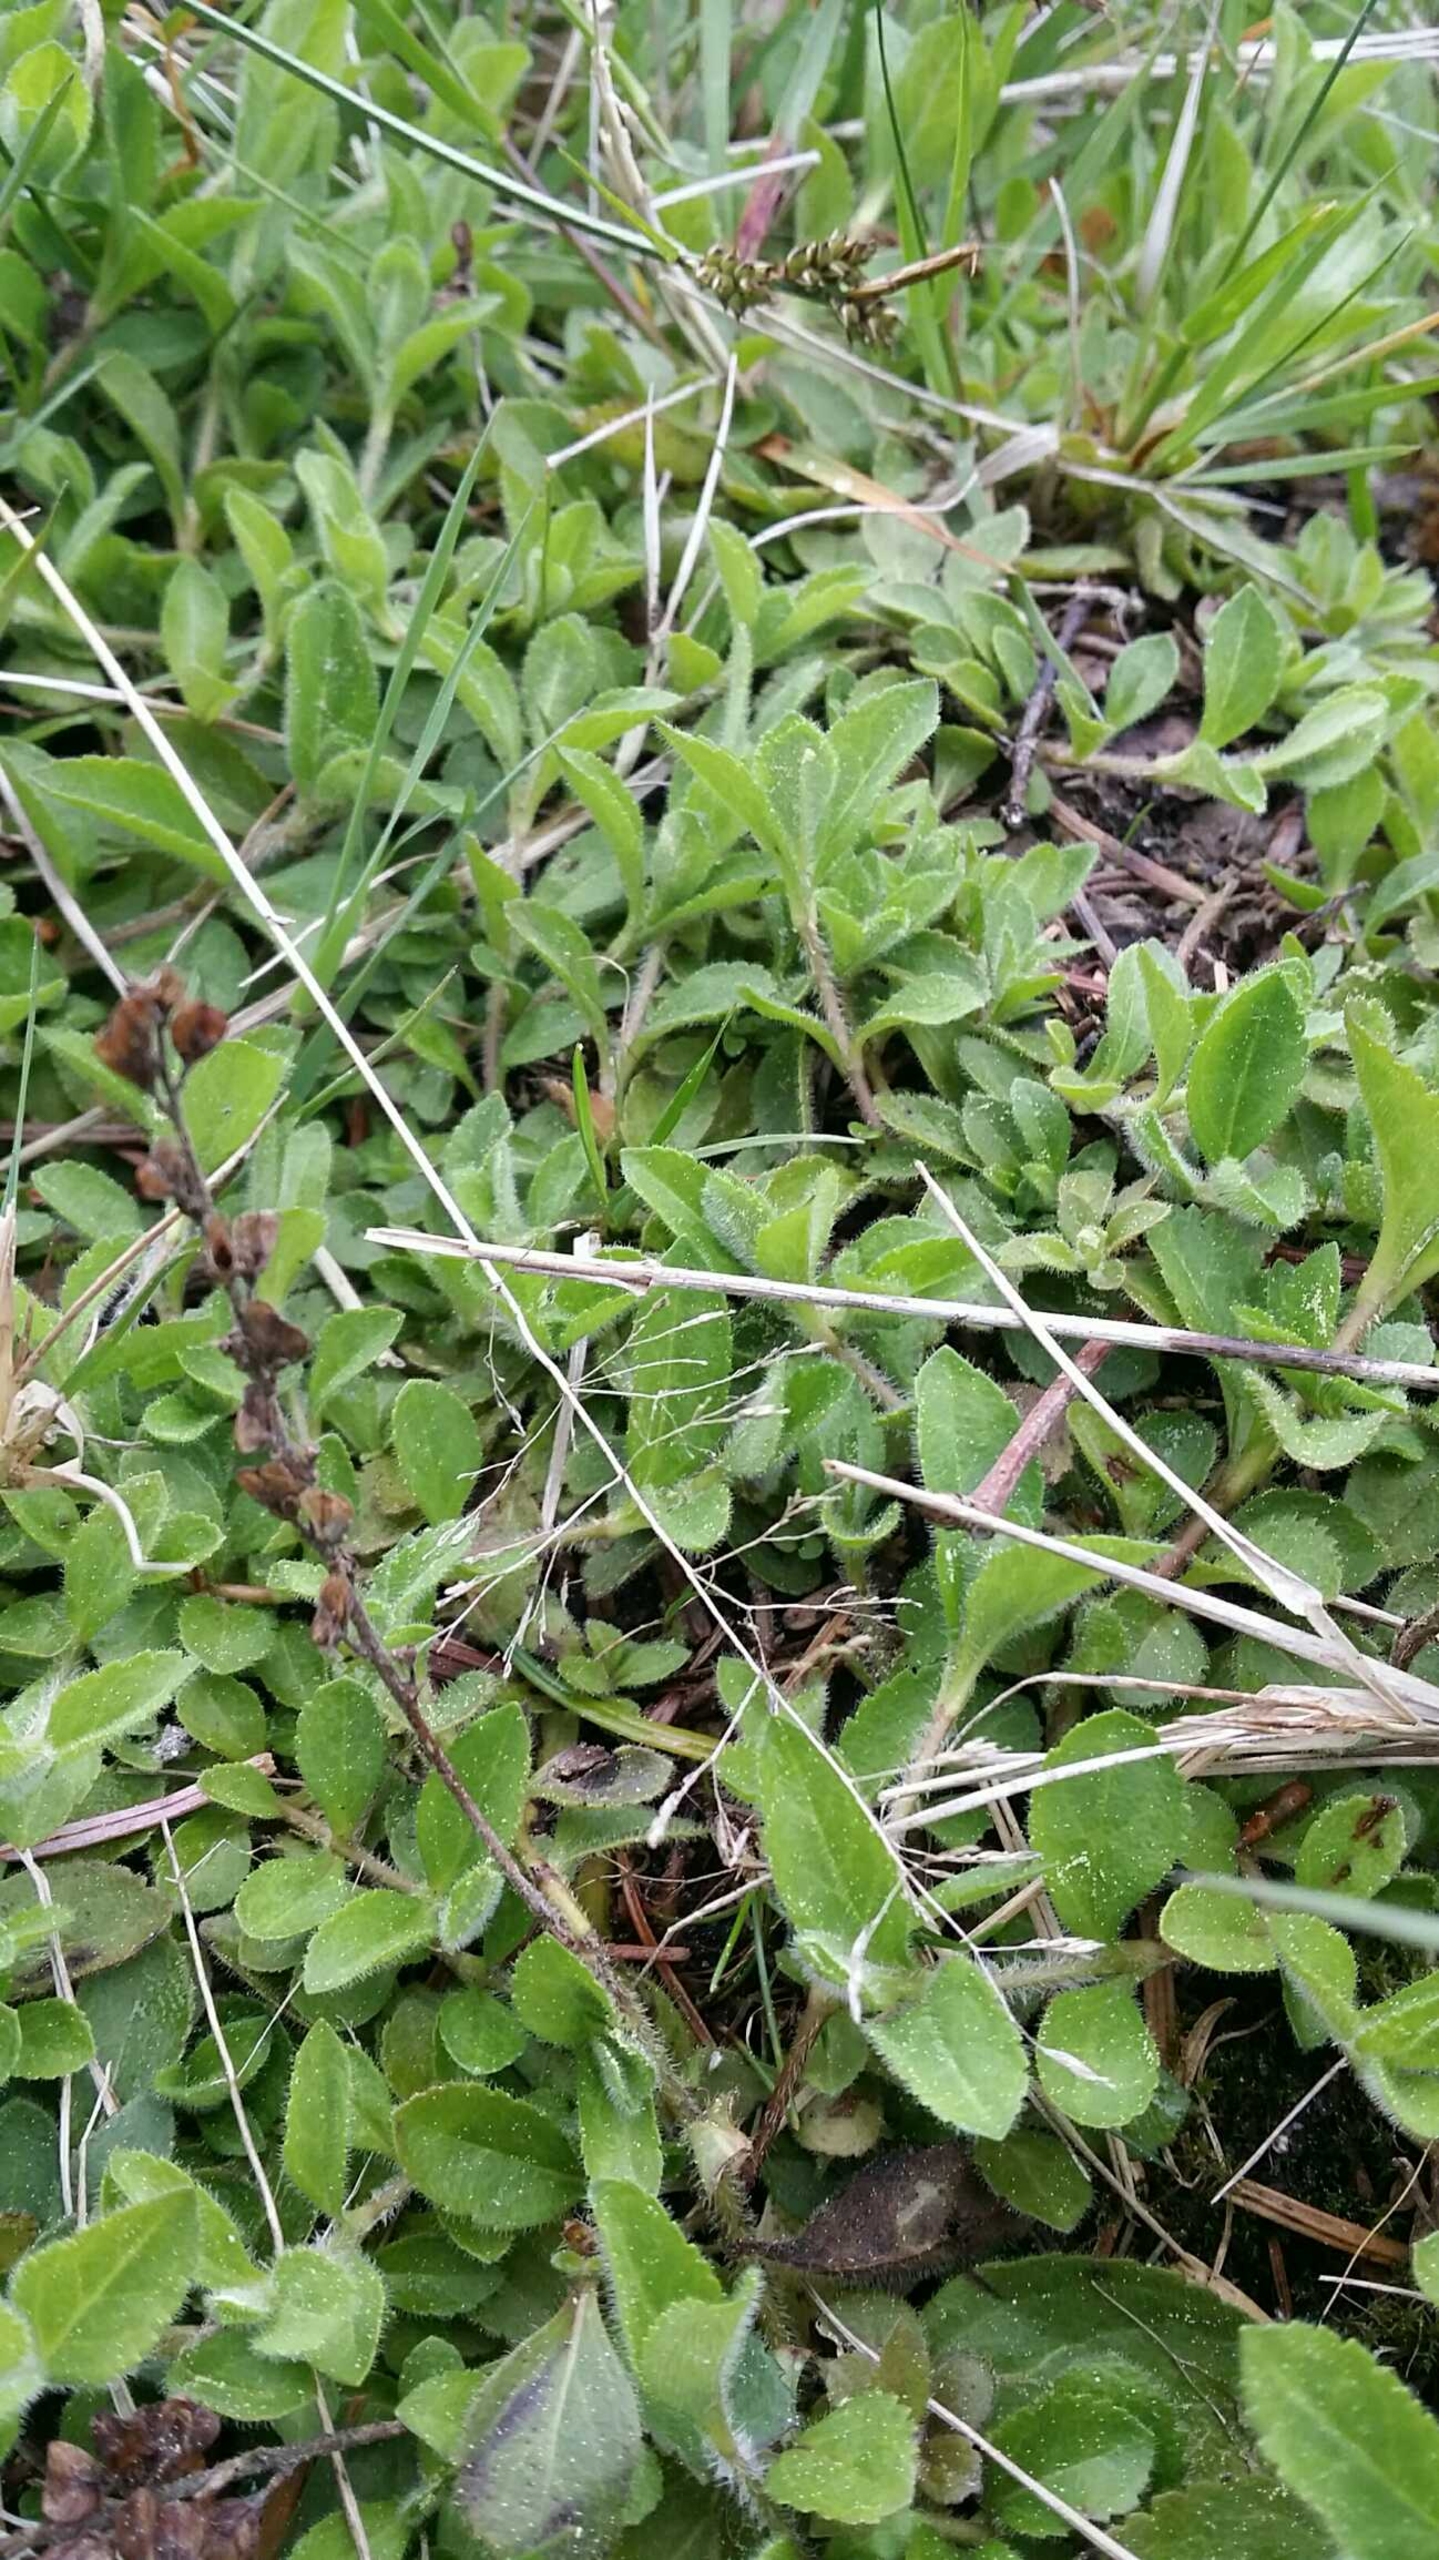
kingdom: Plantae
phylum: Tracheophyta
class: Magnoliopsida
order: Lamiales
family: Plantaginaceae
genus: Veronica
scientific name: Veronica officinalis
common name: Læge-ærenpris
